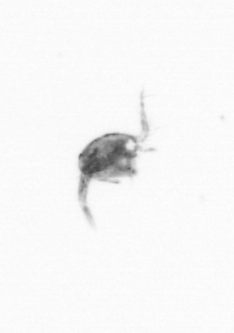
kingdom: Animalia
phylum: Arthropoda
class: Copepoda
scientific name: Copepoda
